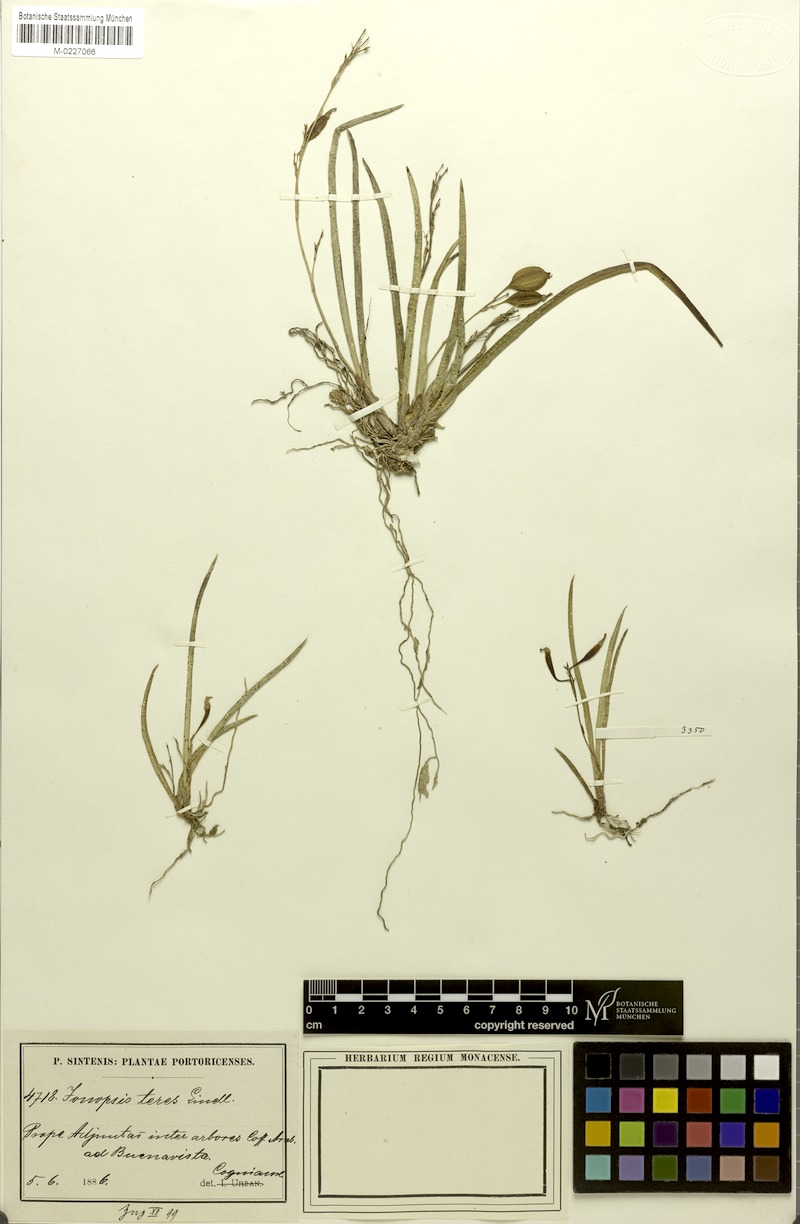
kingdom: Plantae
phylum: Tracheophyta
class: Liliopsida
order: Asparagales
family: Orchidaceae
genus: Ionopsis
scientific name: Ionopsis satyrioides
